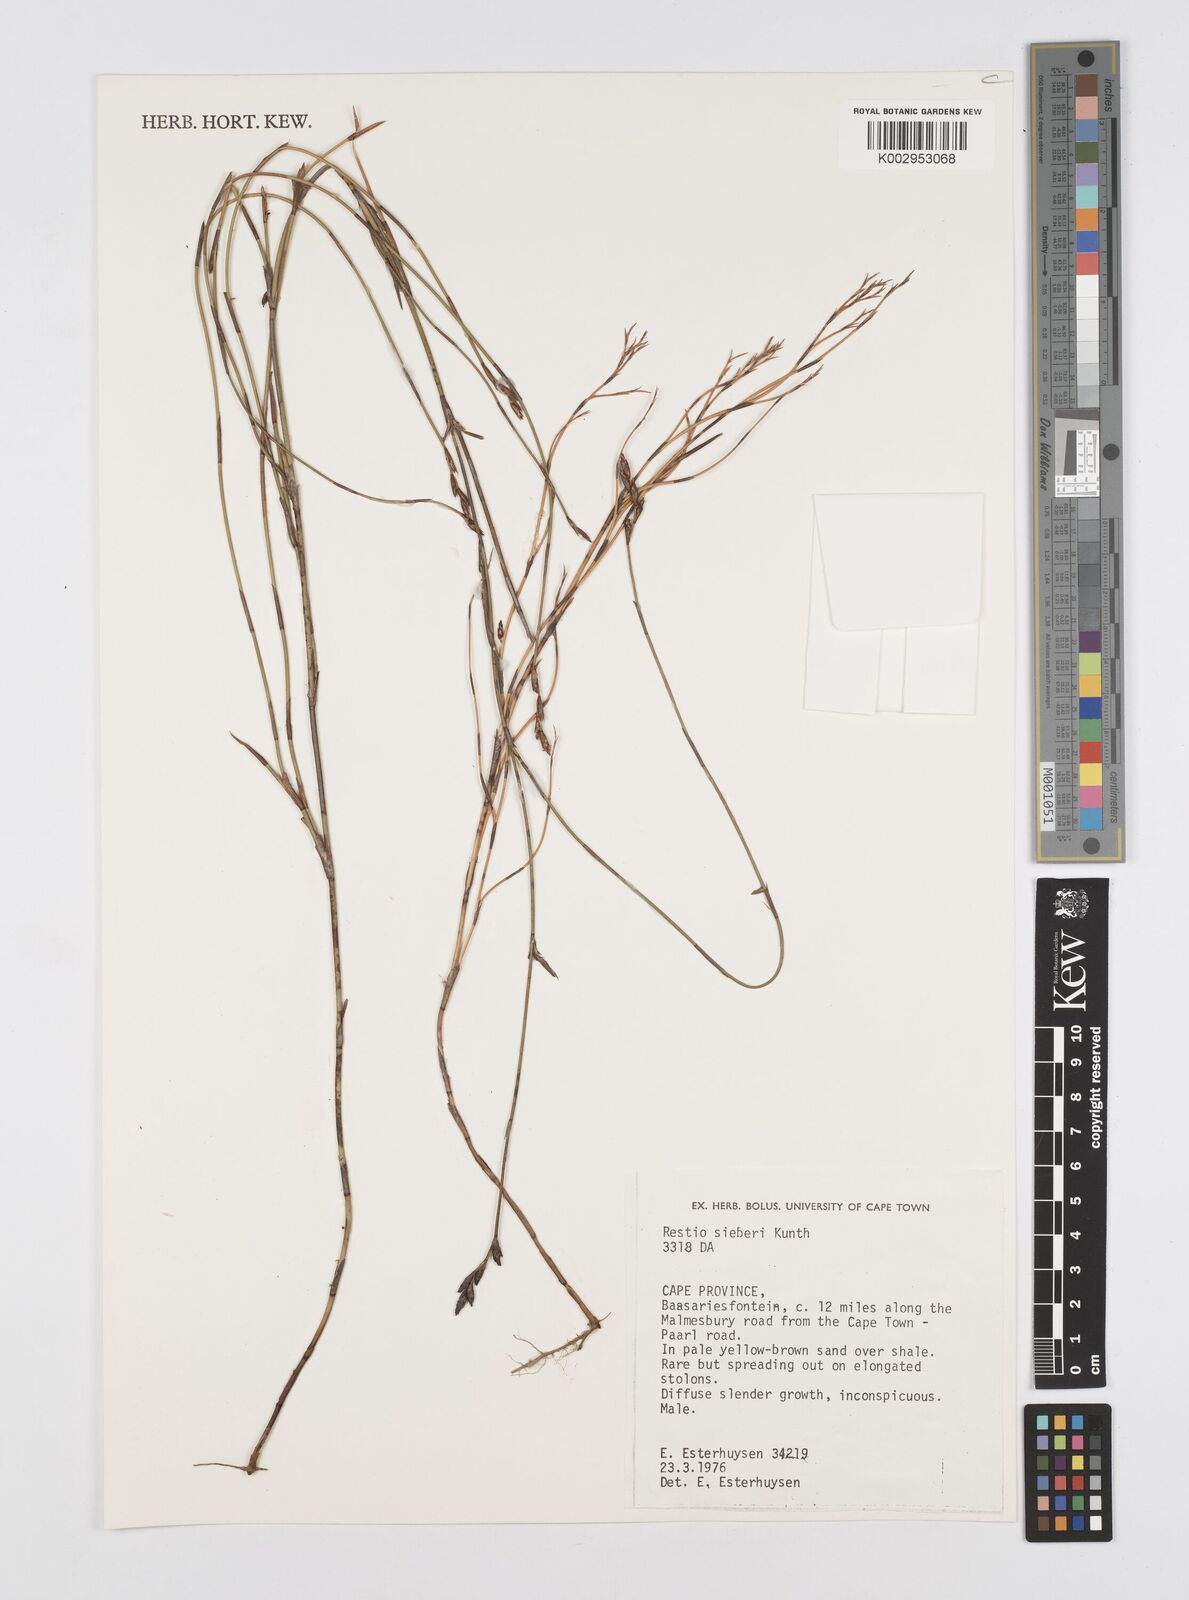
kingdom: Plantae
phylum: Tracheophyta
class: Liliopsida
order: Poales
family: Restionaceae
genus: Restio
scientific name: Restio sieberi
